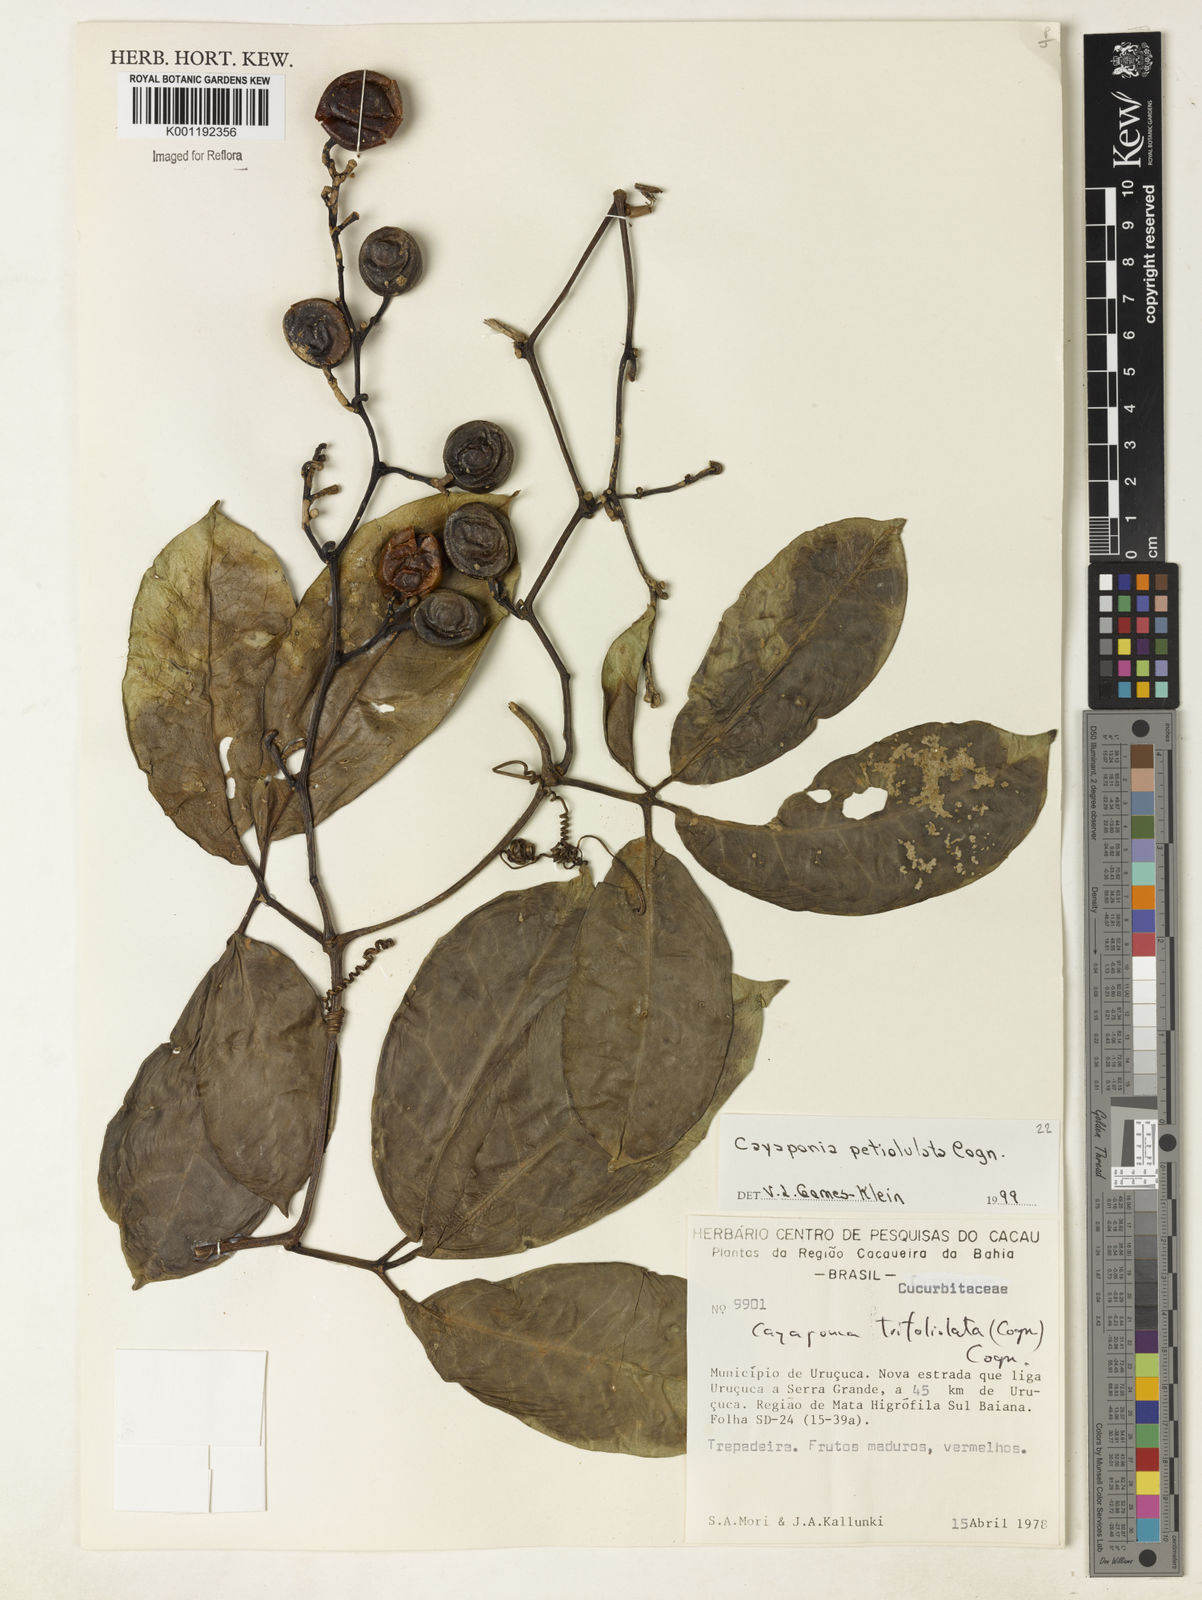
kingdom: Plantae
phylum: Tracheophyta
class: Magnoliopsida
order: Cucurbitales
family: Cucurbitaceae
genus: Cayaponia
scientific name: Cayaponia petiolulata
